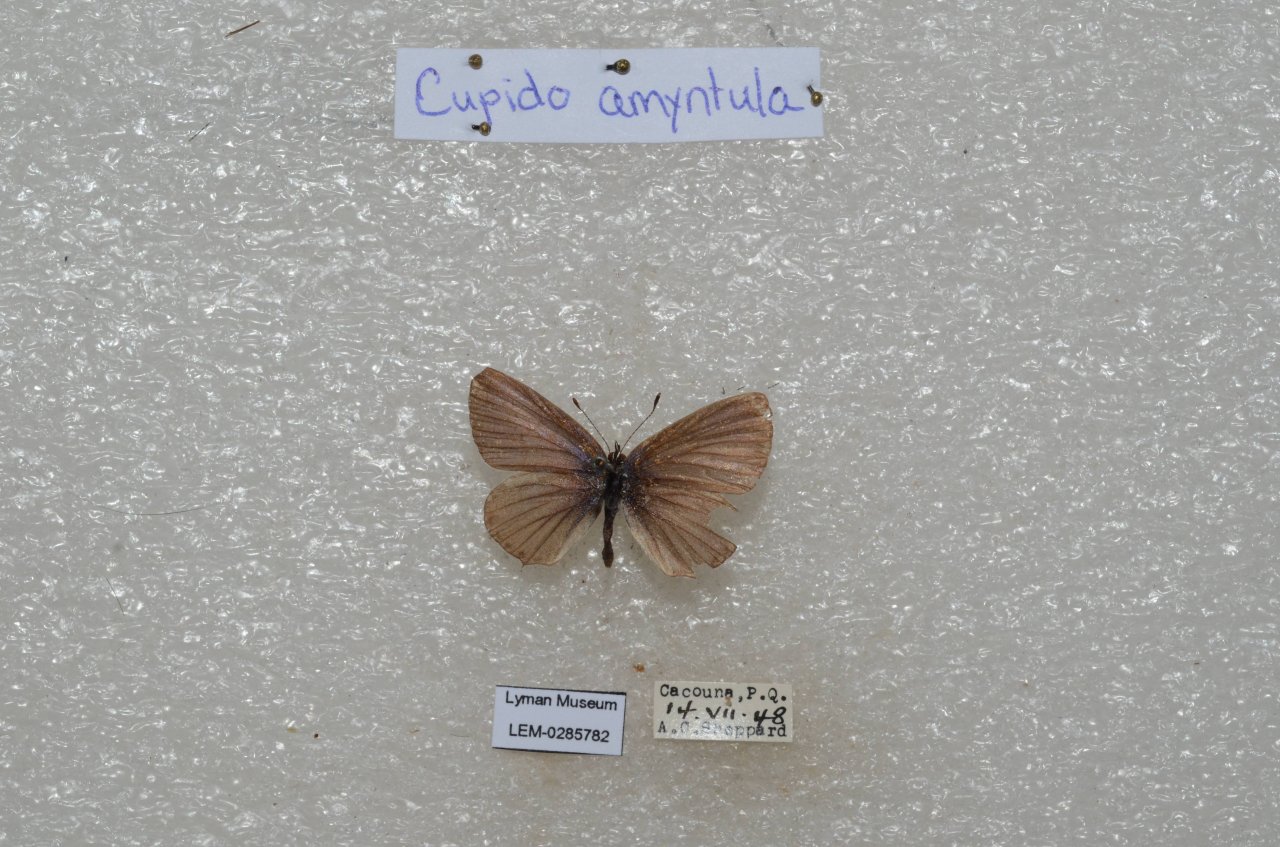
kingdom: Animalia
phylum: Arthropoda
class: Insecta
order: Lepidoptera
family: Lycaenidae
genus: Elkalyce
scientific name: Elkalyce amyntula
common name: Western Tailed-Blue
